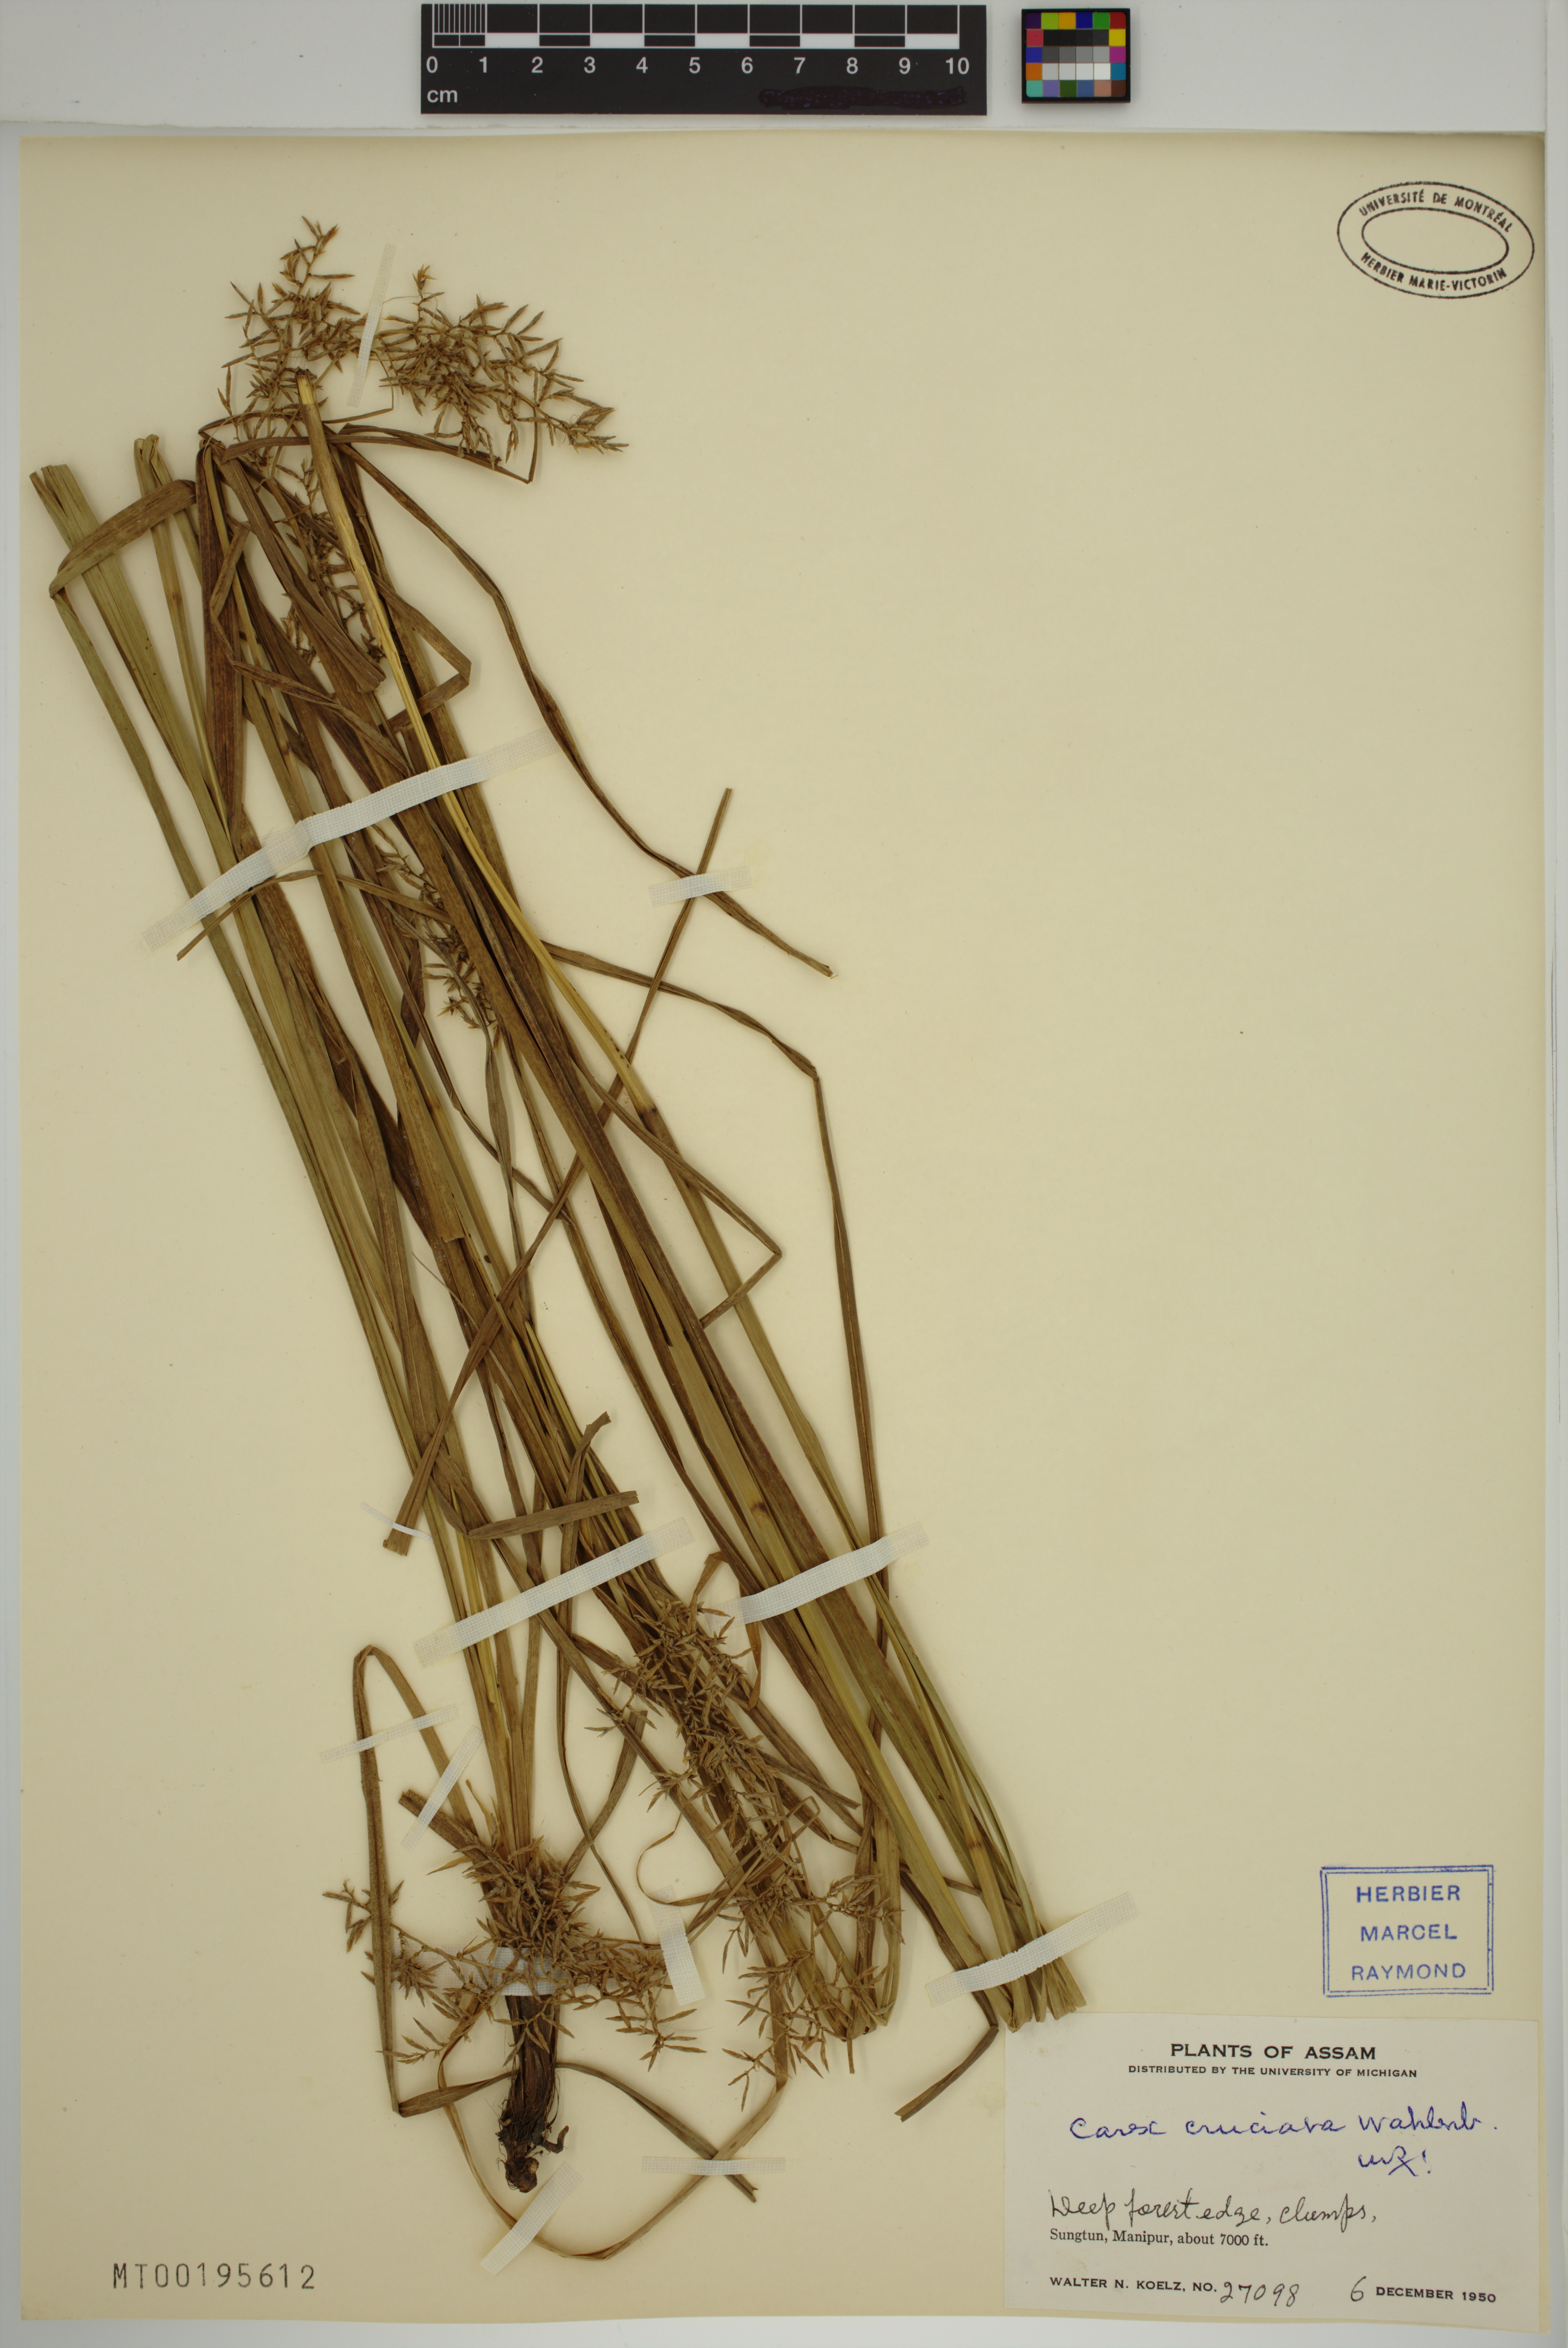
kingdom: Plantae
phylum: Tracheophyta
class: Liliopsida
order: Poales
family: Cyperaceae
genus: Carex
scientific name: Carex cruciata
